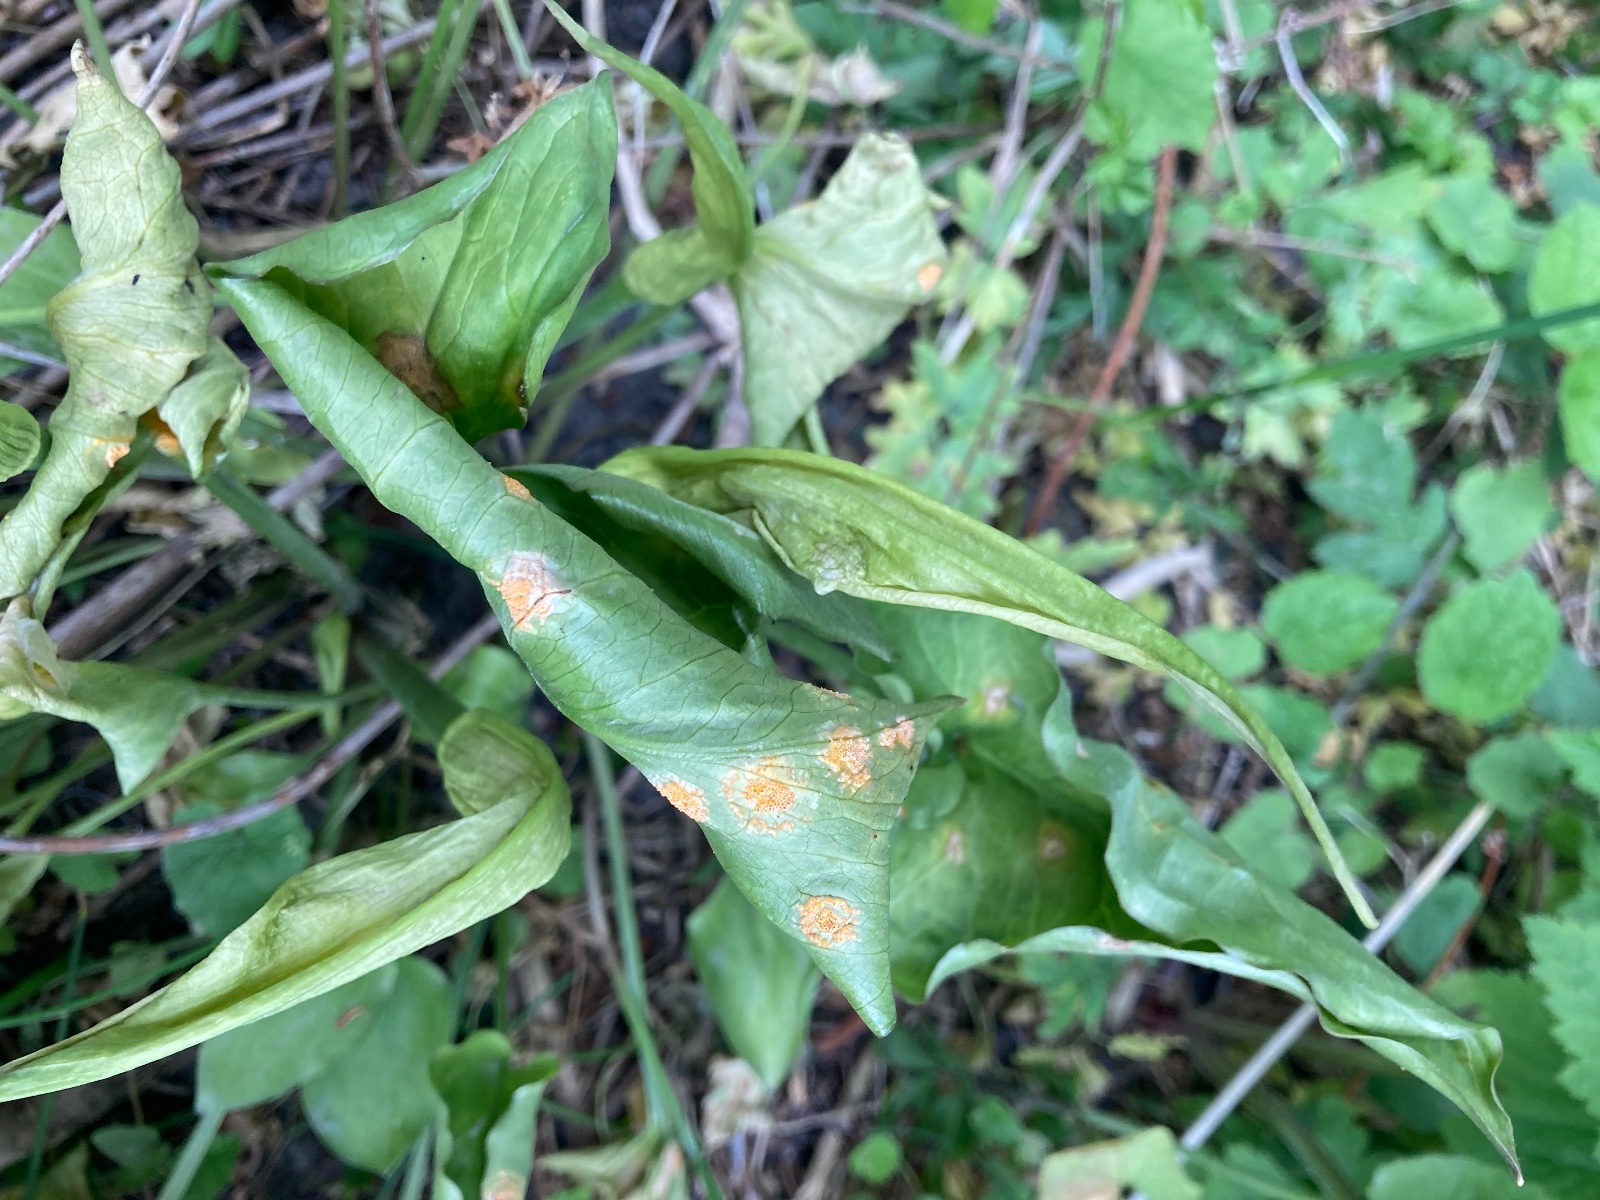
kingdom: Fungi
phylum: Basidiomycota
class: Pucciniomycetes
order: Pucciniales
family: Pucciniaceae
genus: Puccinia
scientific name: Puccinia sessilis
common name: Arum rust
